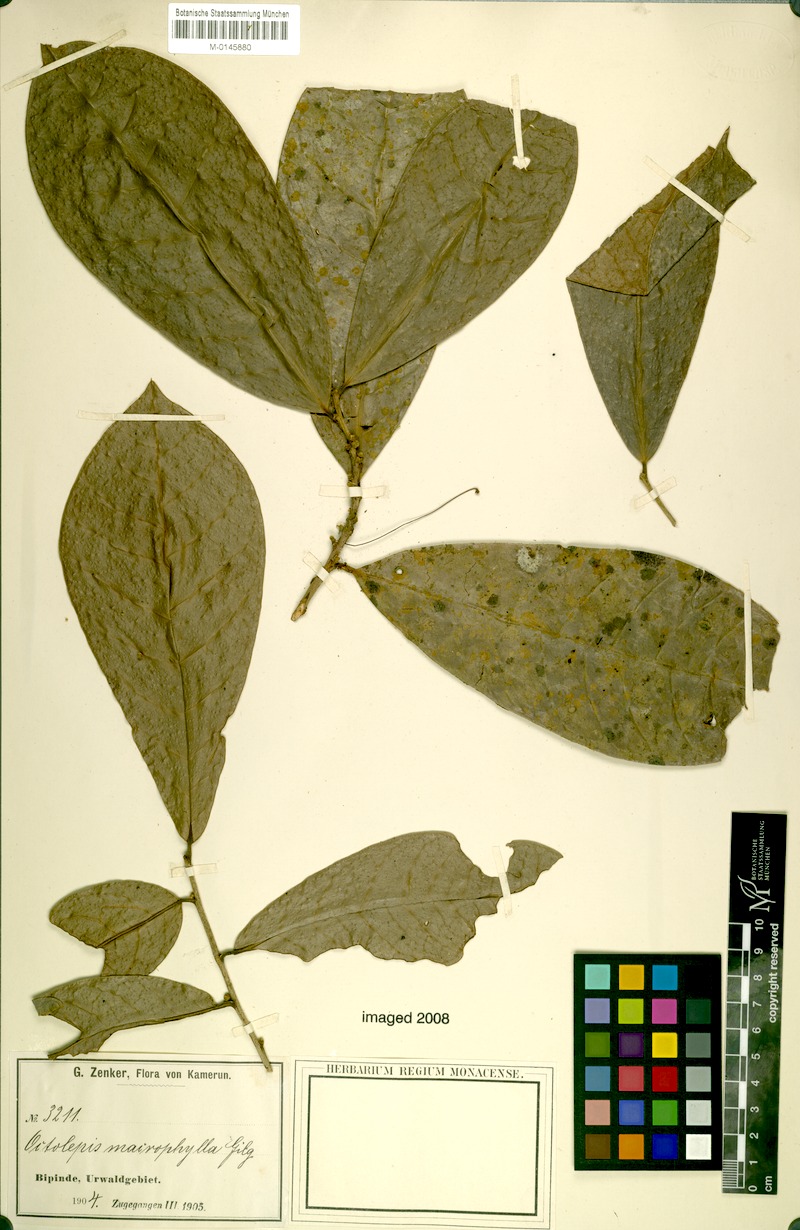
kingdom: Plantae
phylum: Tracheophyta
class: Magnoliopsida
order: Malvales
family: Thymelaeaceae
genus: Octolepis
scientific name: Octolepis casearia
